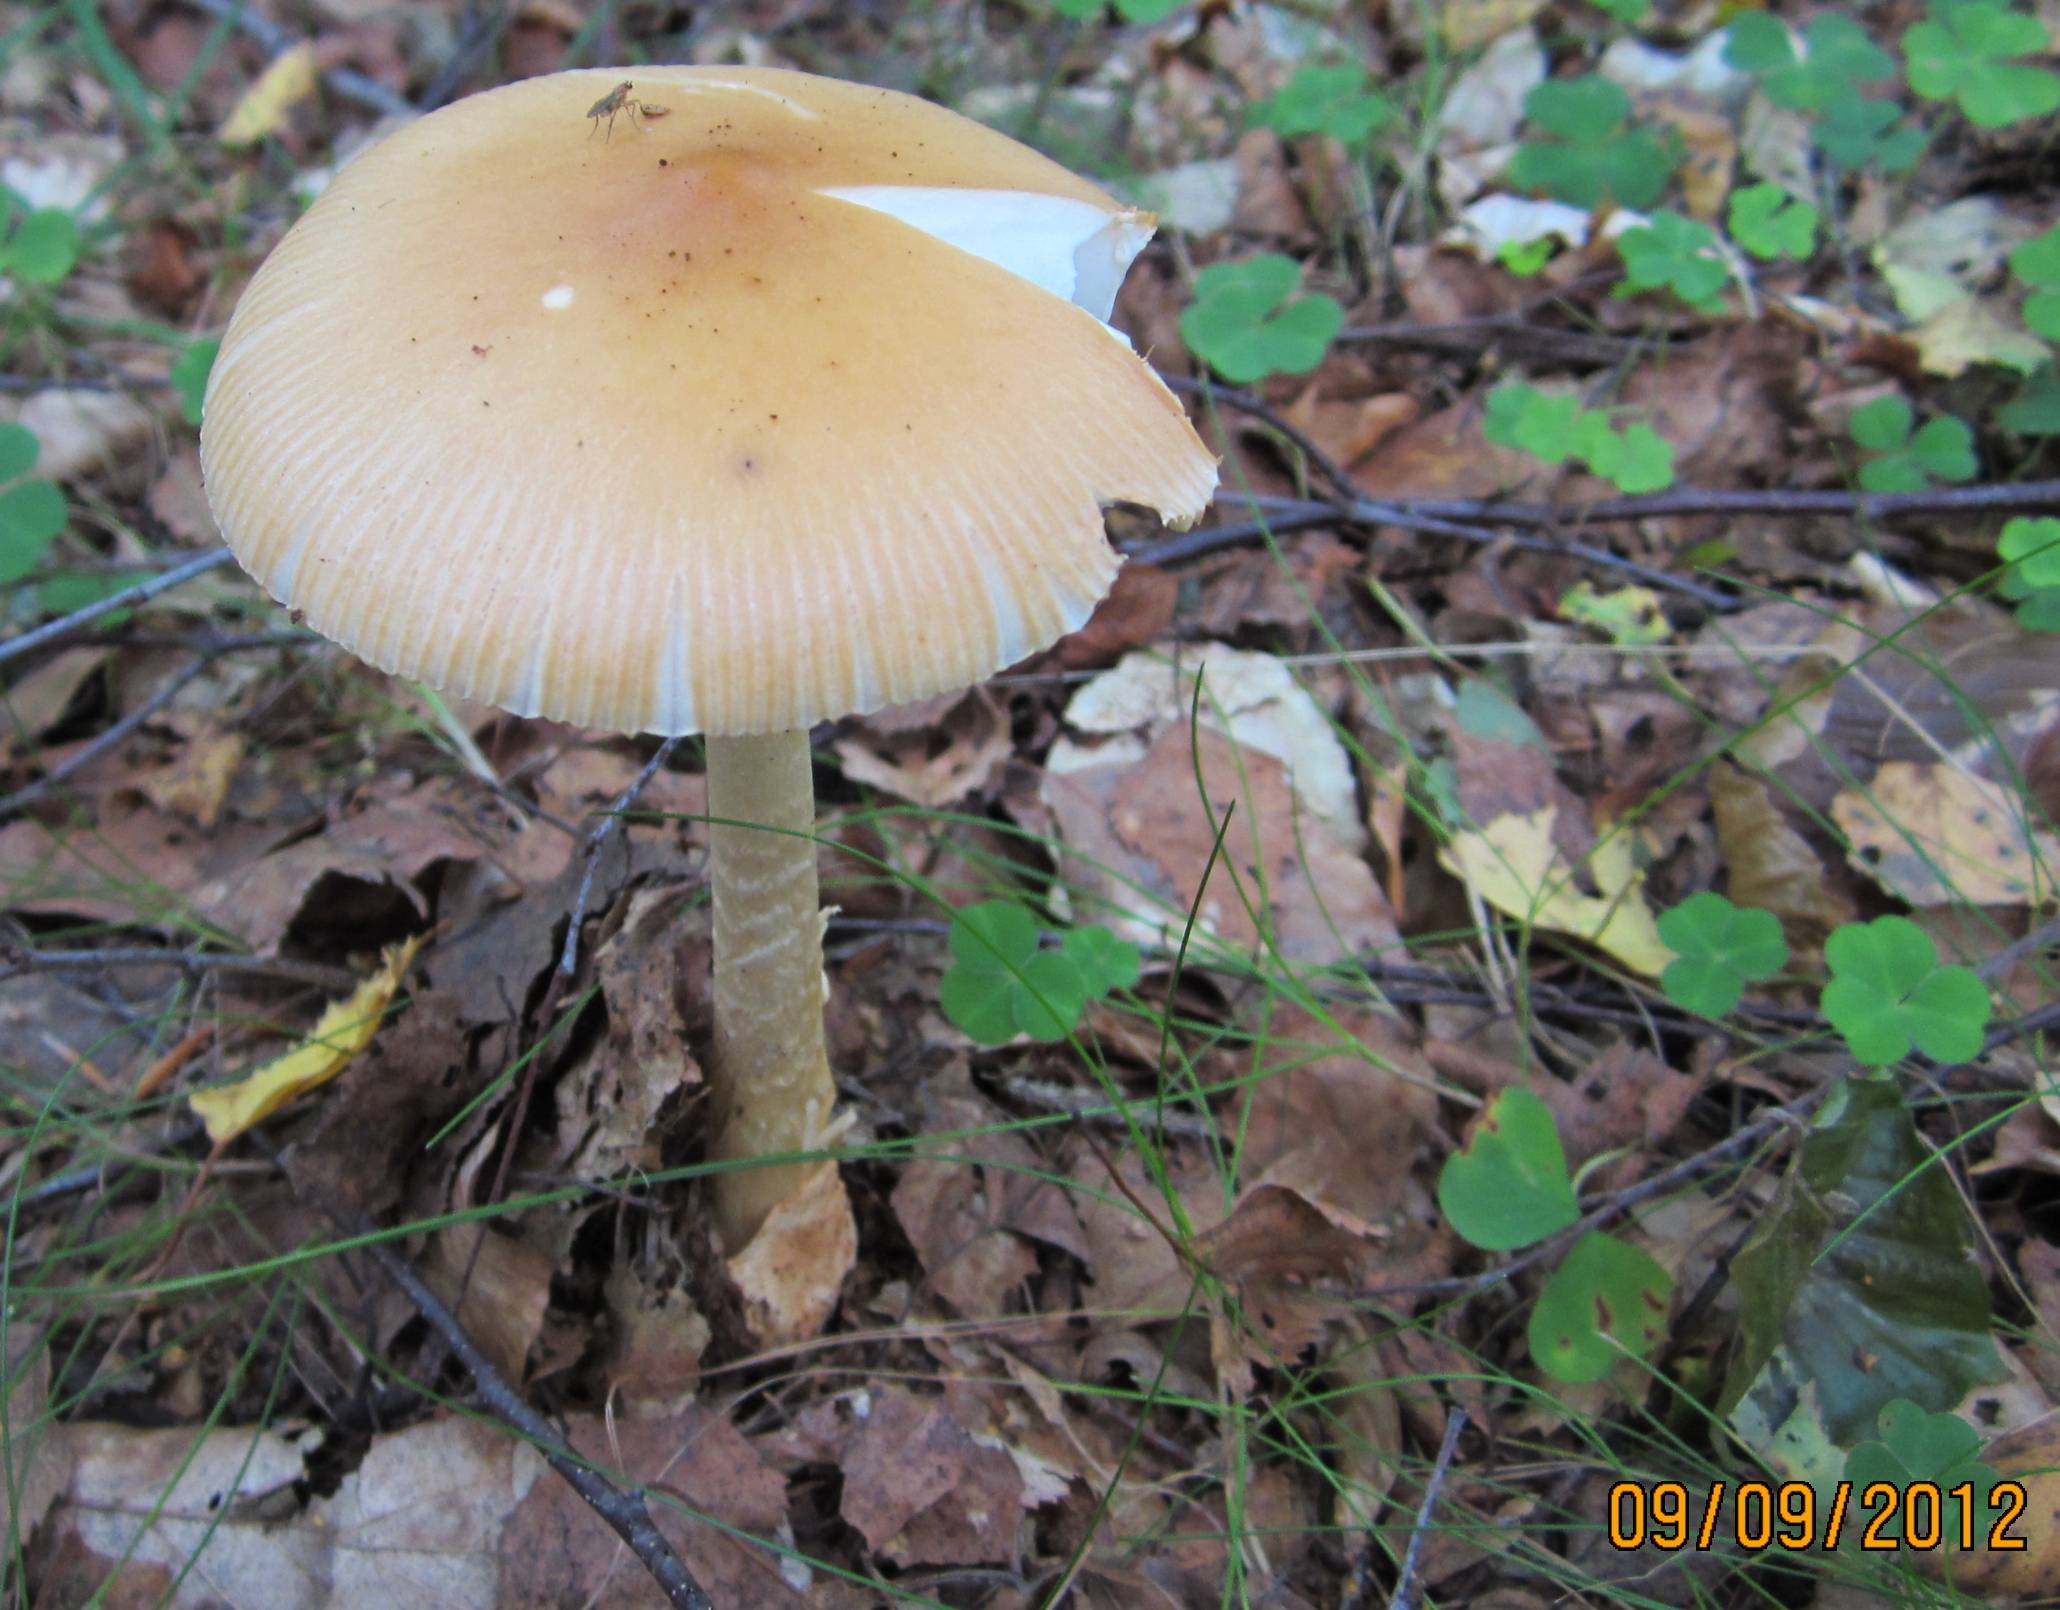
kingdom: Fungi
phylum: Basidiomycota
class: Agaricomycetes
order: Agaricales
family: Amanitaceae
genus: Amanita
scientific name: Amanita crocea
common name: gylden kam-fluesvamp
